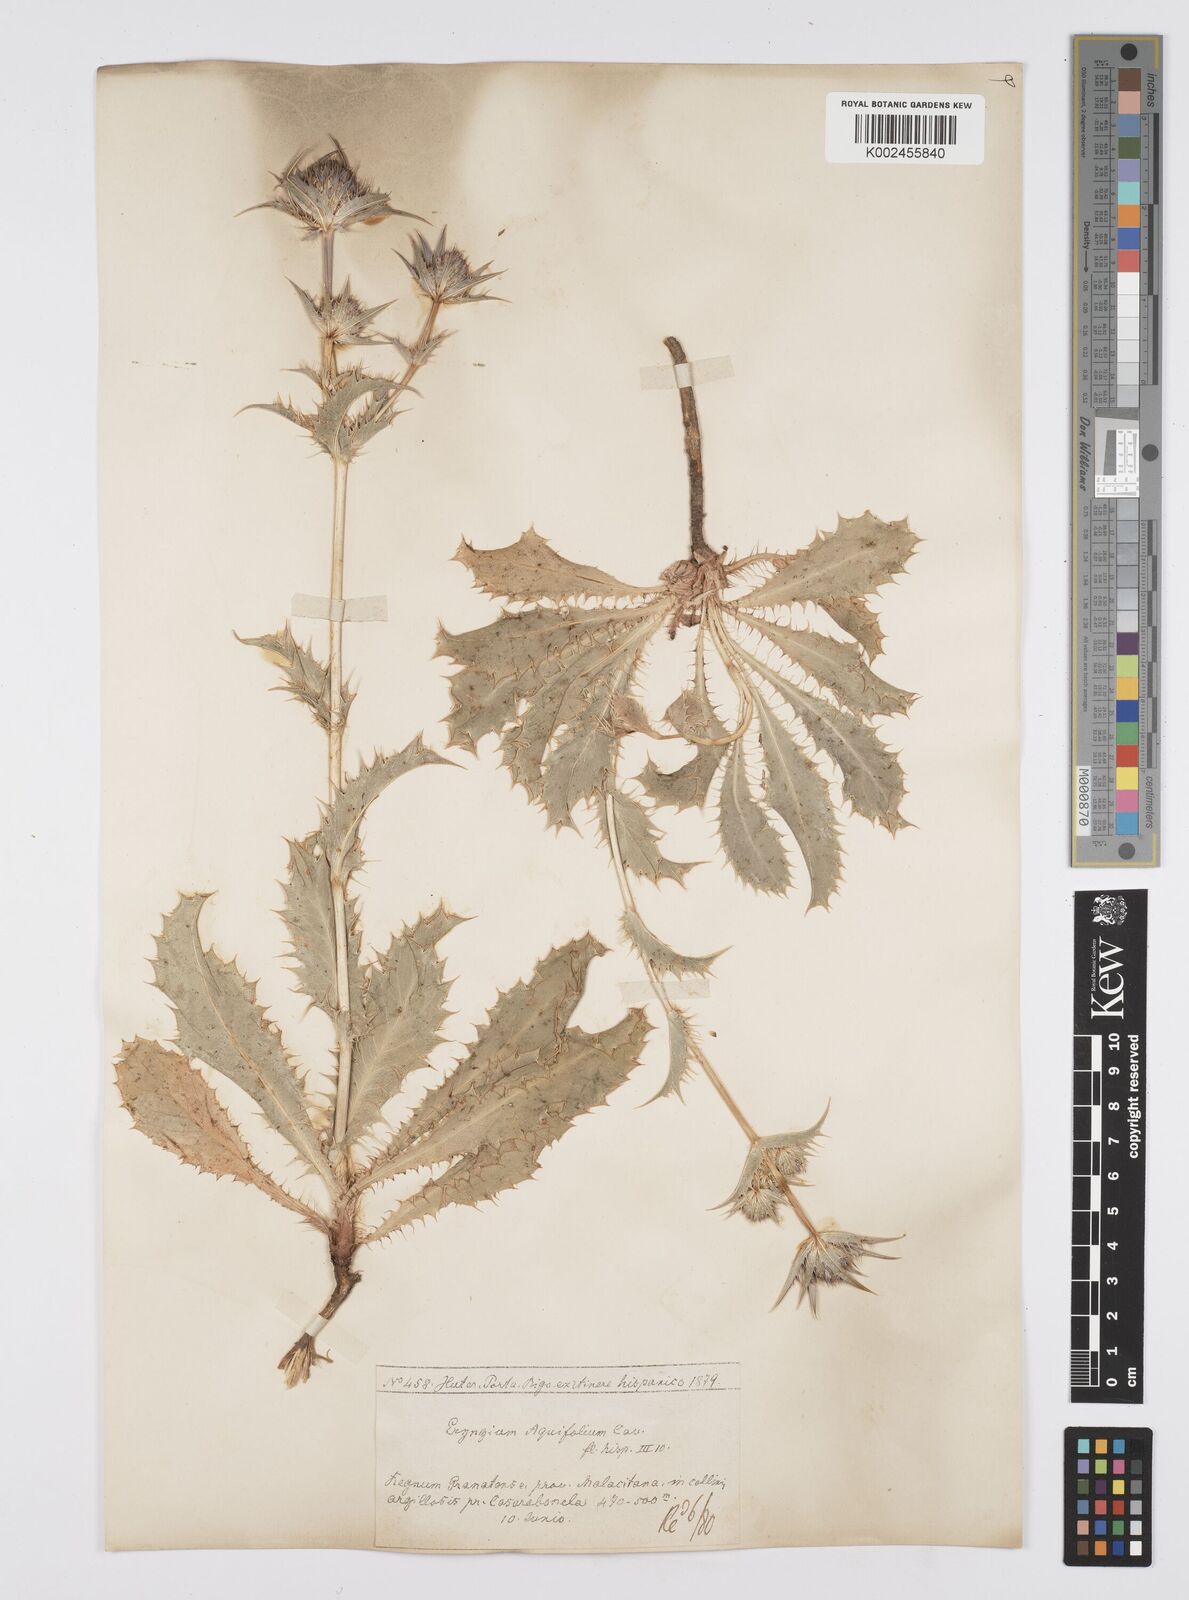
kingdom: Plantae
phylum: Tracheophyta
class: Magnoliopsida
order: Apiales
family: Apiaceae
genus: Eryngium
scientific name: Eryngium aquifolium
